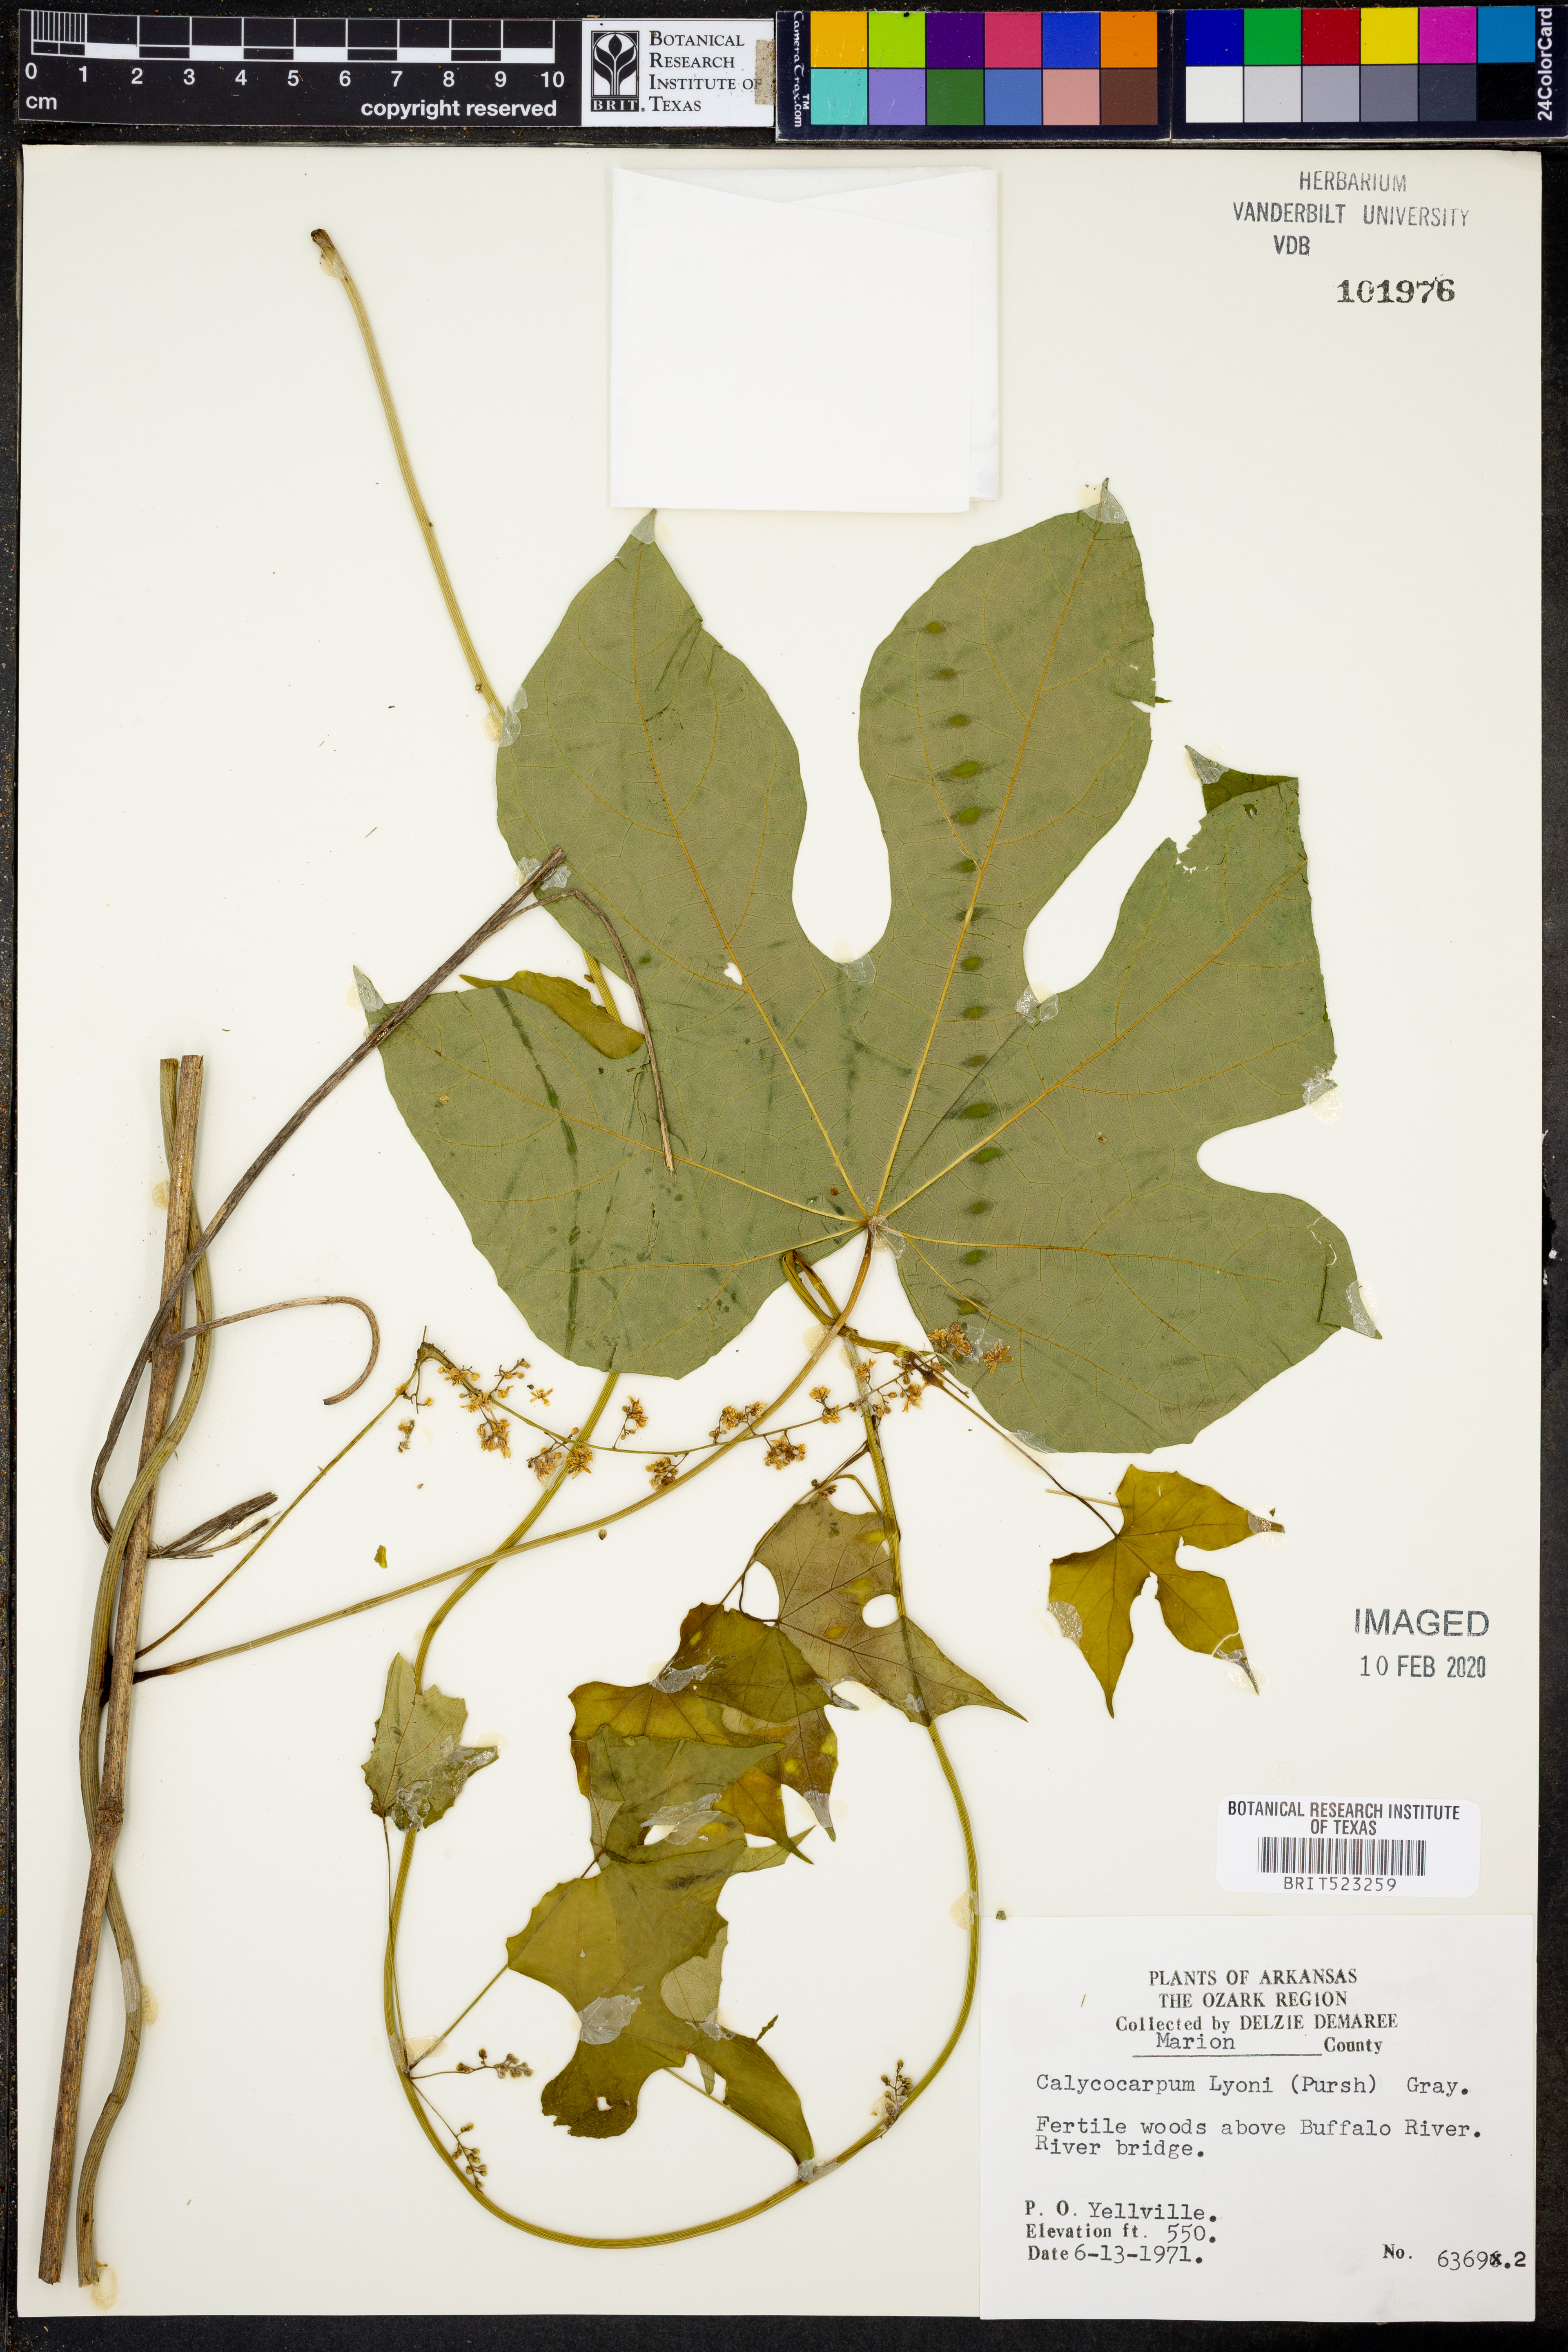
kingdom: Plantae
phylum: Tracheophyta
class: Magnoliopsida
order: Ranunculales
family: Menispermaceae
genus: Calycocarpum
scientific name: Calycocarpum lyonii
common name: Cupseed
